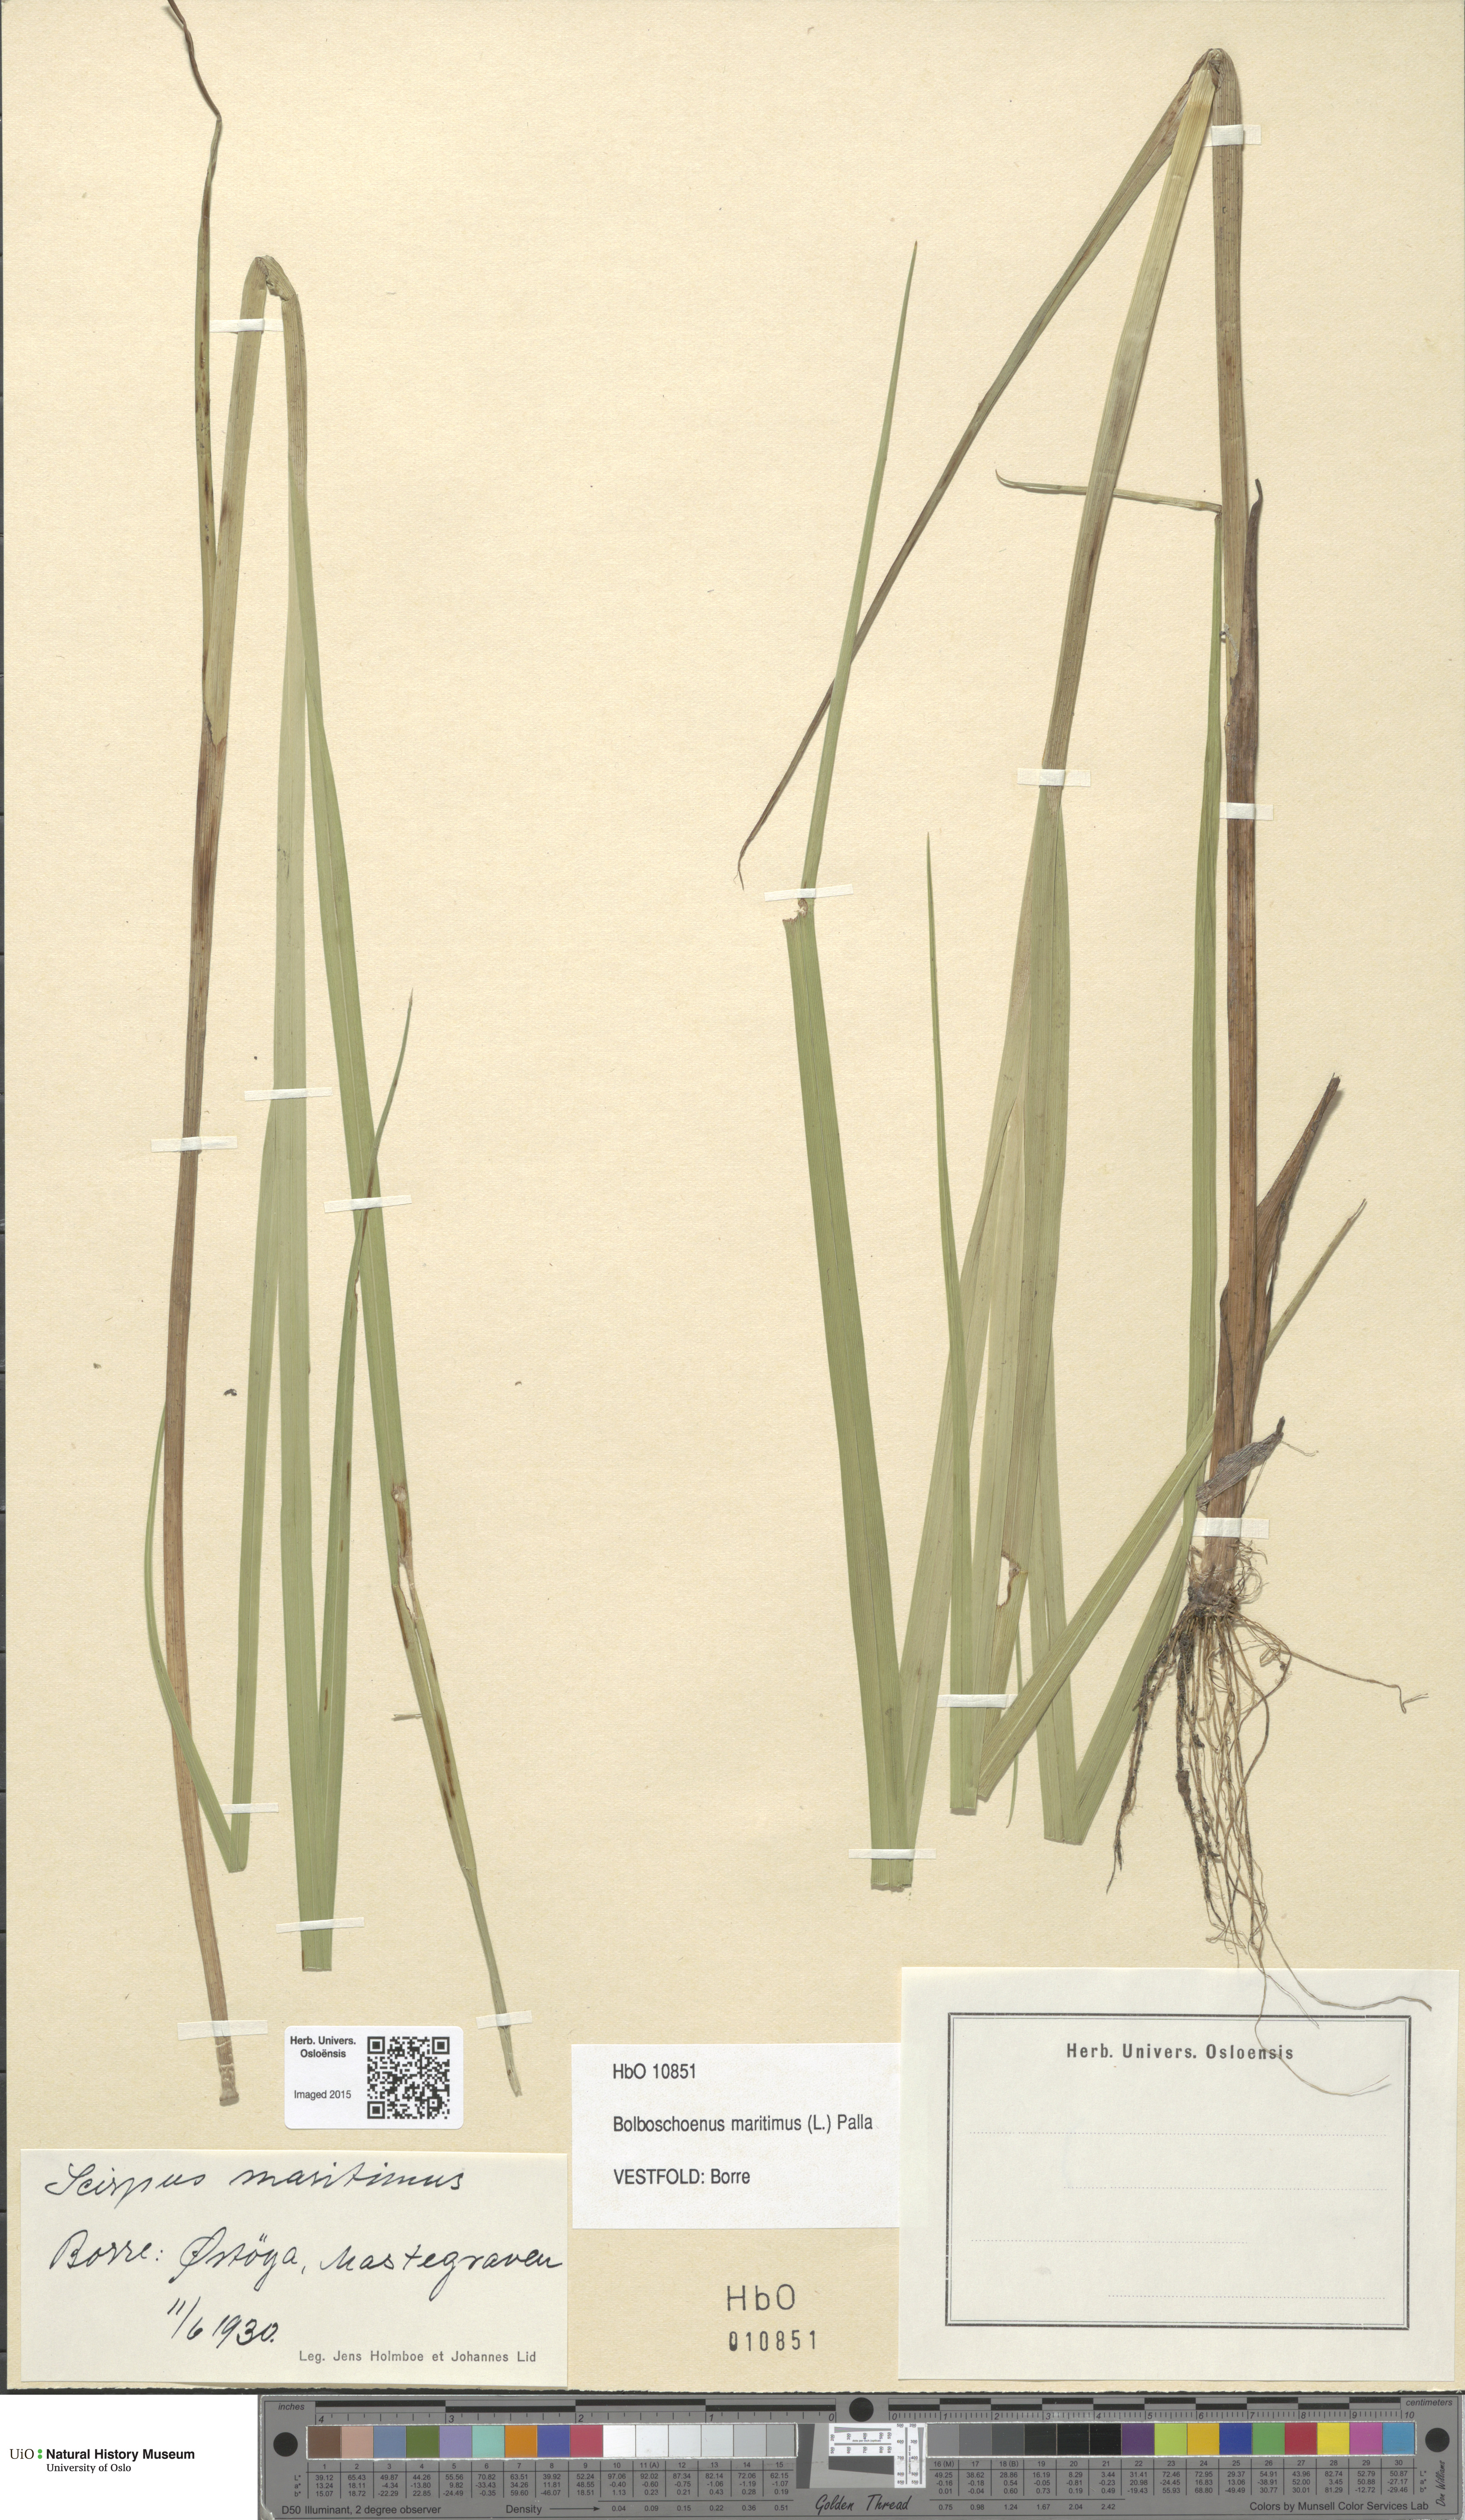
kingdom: Plantae
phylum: Tracheophyta
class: Liliopsida
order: Poales
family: Cyperaceae
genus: Bolboschoenus
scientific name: Bolboschoenus maritimus
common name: Sea club-rush
